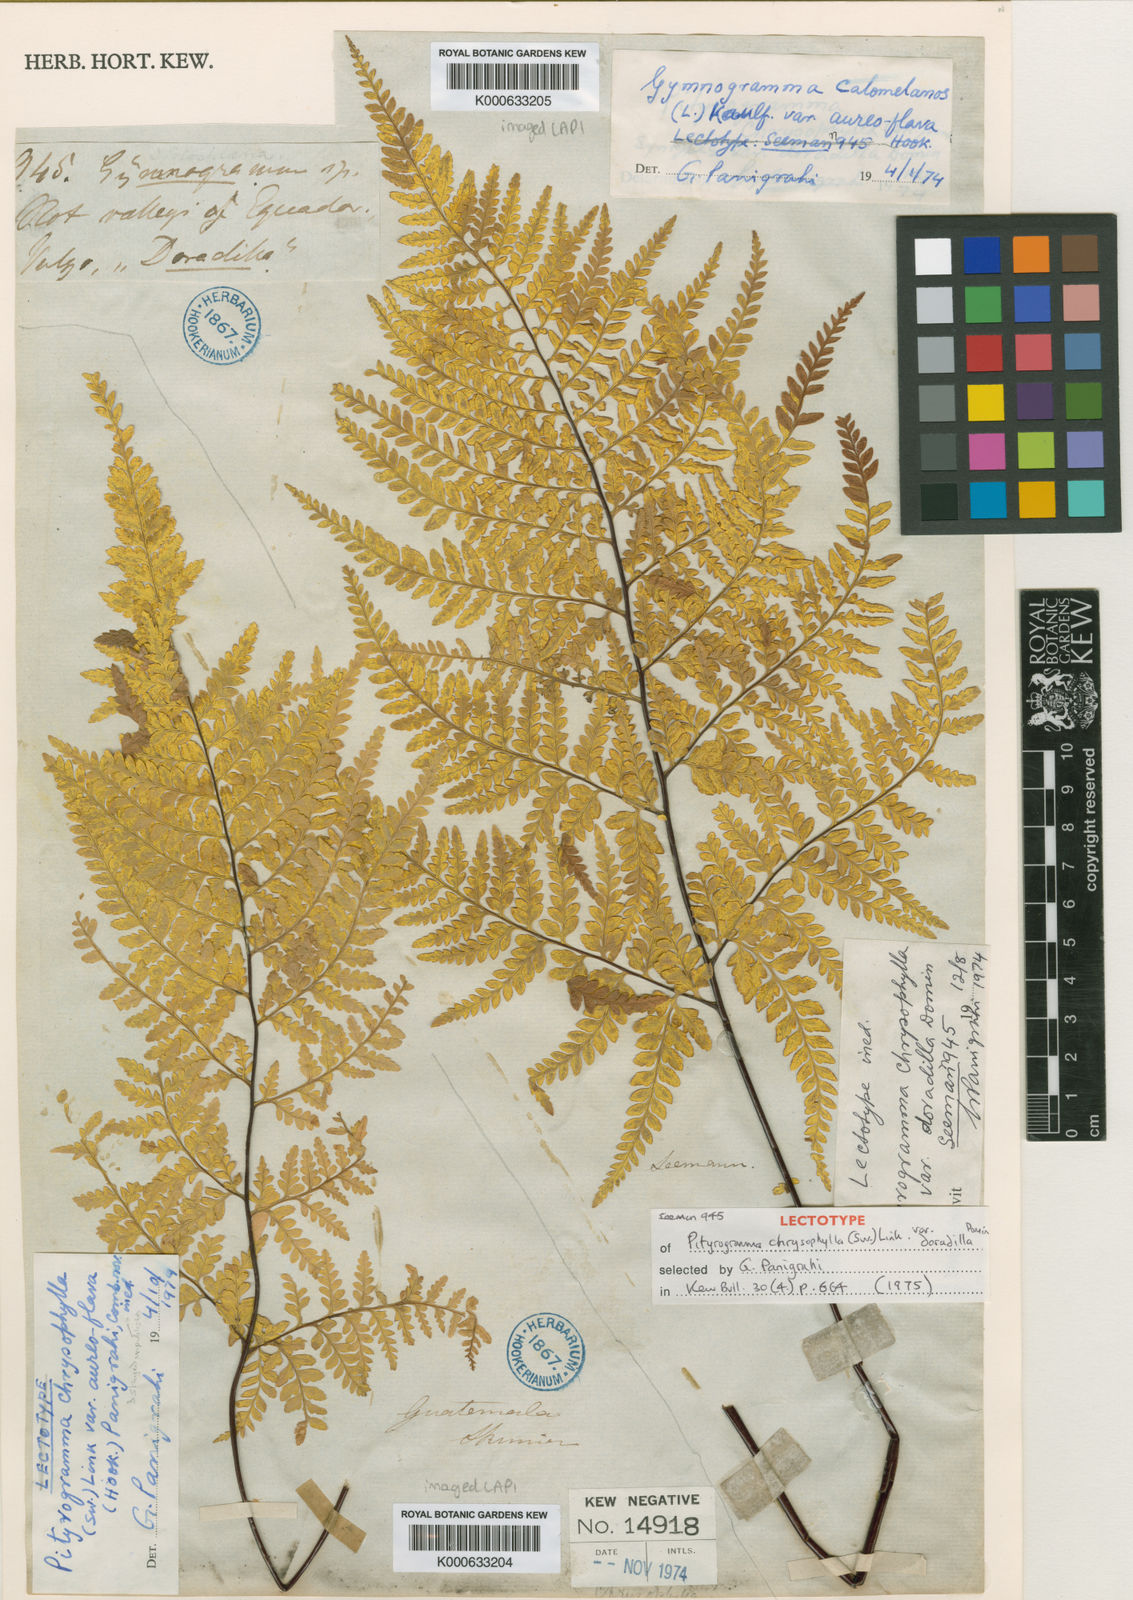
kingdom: Plantae
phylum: Tracheophyta
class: Polypodiopsida
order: Polypodiales
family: Pteridaceae
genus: Pityrogramma
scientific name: Pityrogramma chrysophylla
